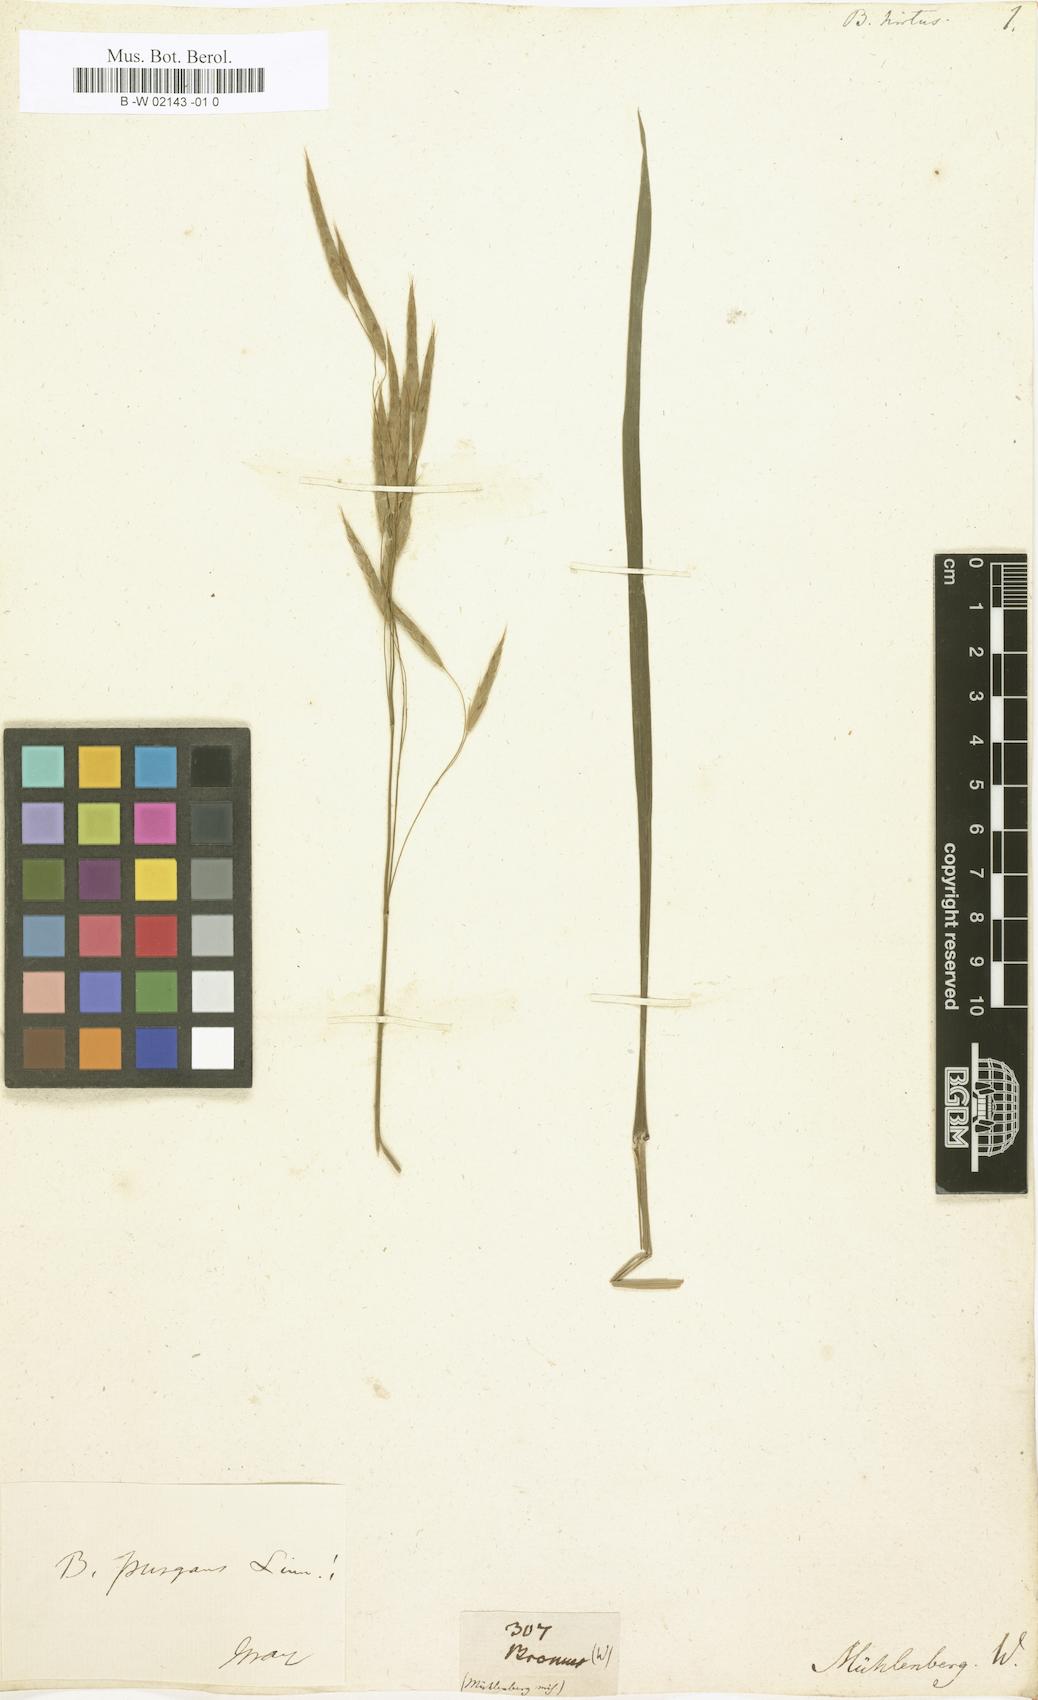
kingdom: Plantae
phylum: Tracheophyta
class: Liliopsida
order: Poales
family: Poaceae
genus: Bromus
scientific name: Bromus japonicus
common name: Japanese brome
